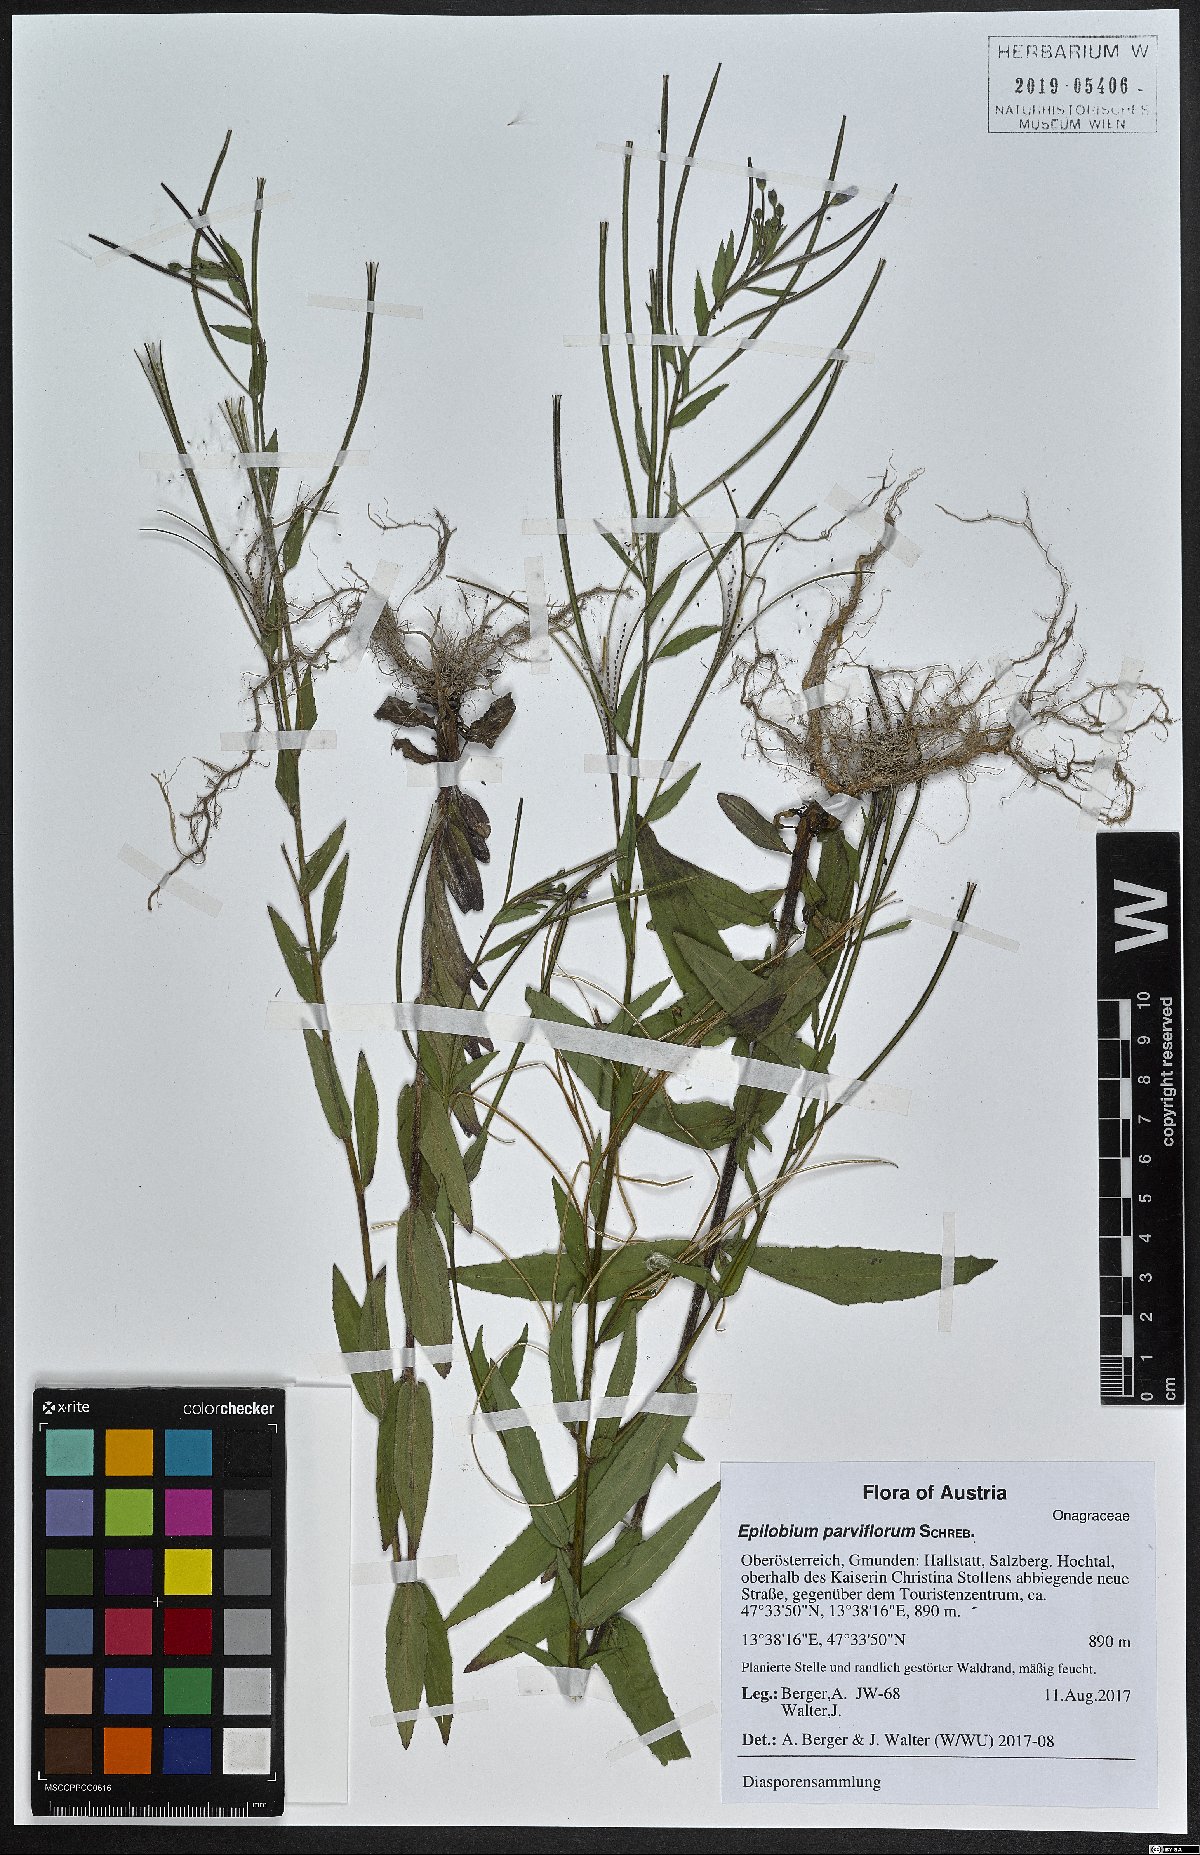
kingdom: Plantae
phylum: Tracheophyta
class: Magnoliopsida
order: Myrtales
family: Onagraceae
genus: Epilobium
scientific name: Epilobium parviflorum
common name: Hoary willowherb
